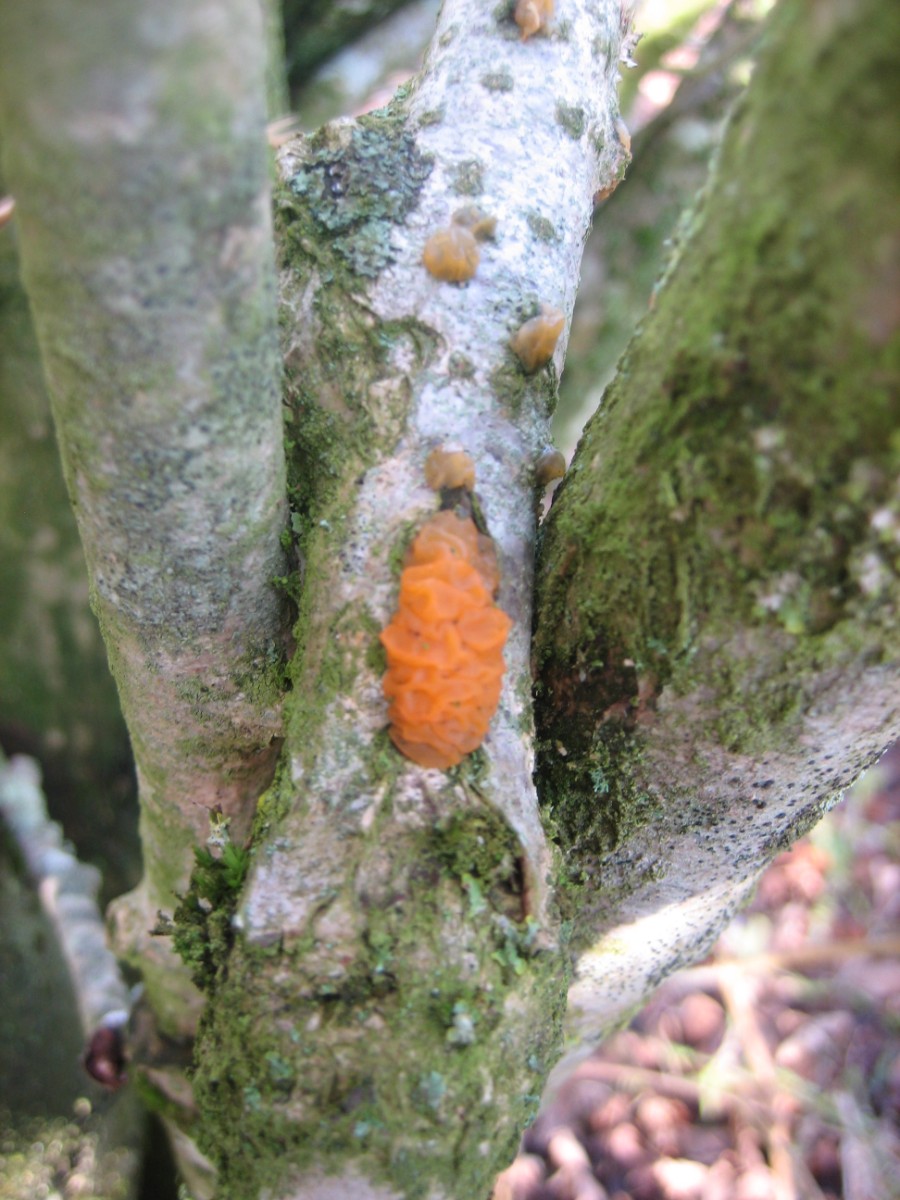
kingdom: Fungi
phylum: Basidiomycota
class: Tremellomycetes
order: Tremellales
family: Tremellaceae
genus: Tremella
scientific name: Tremella mesenterica
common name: gul bævresvamp
